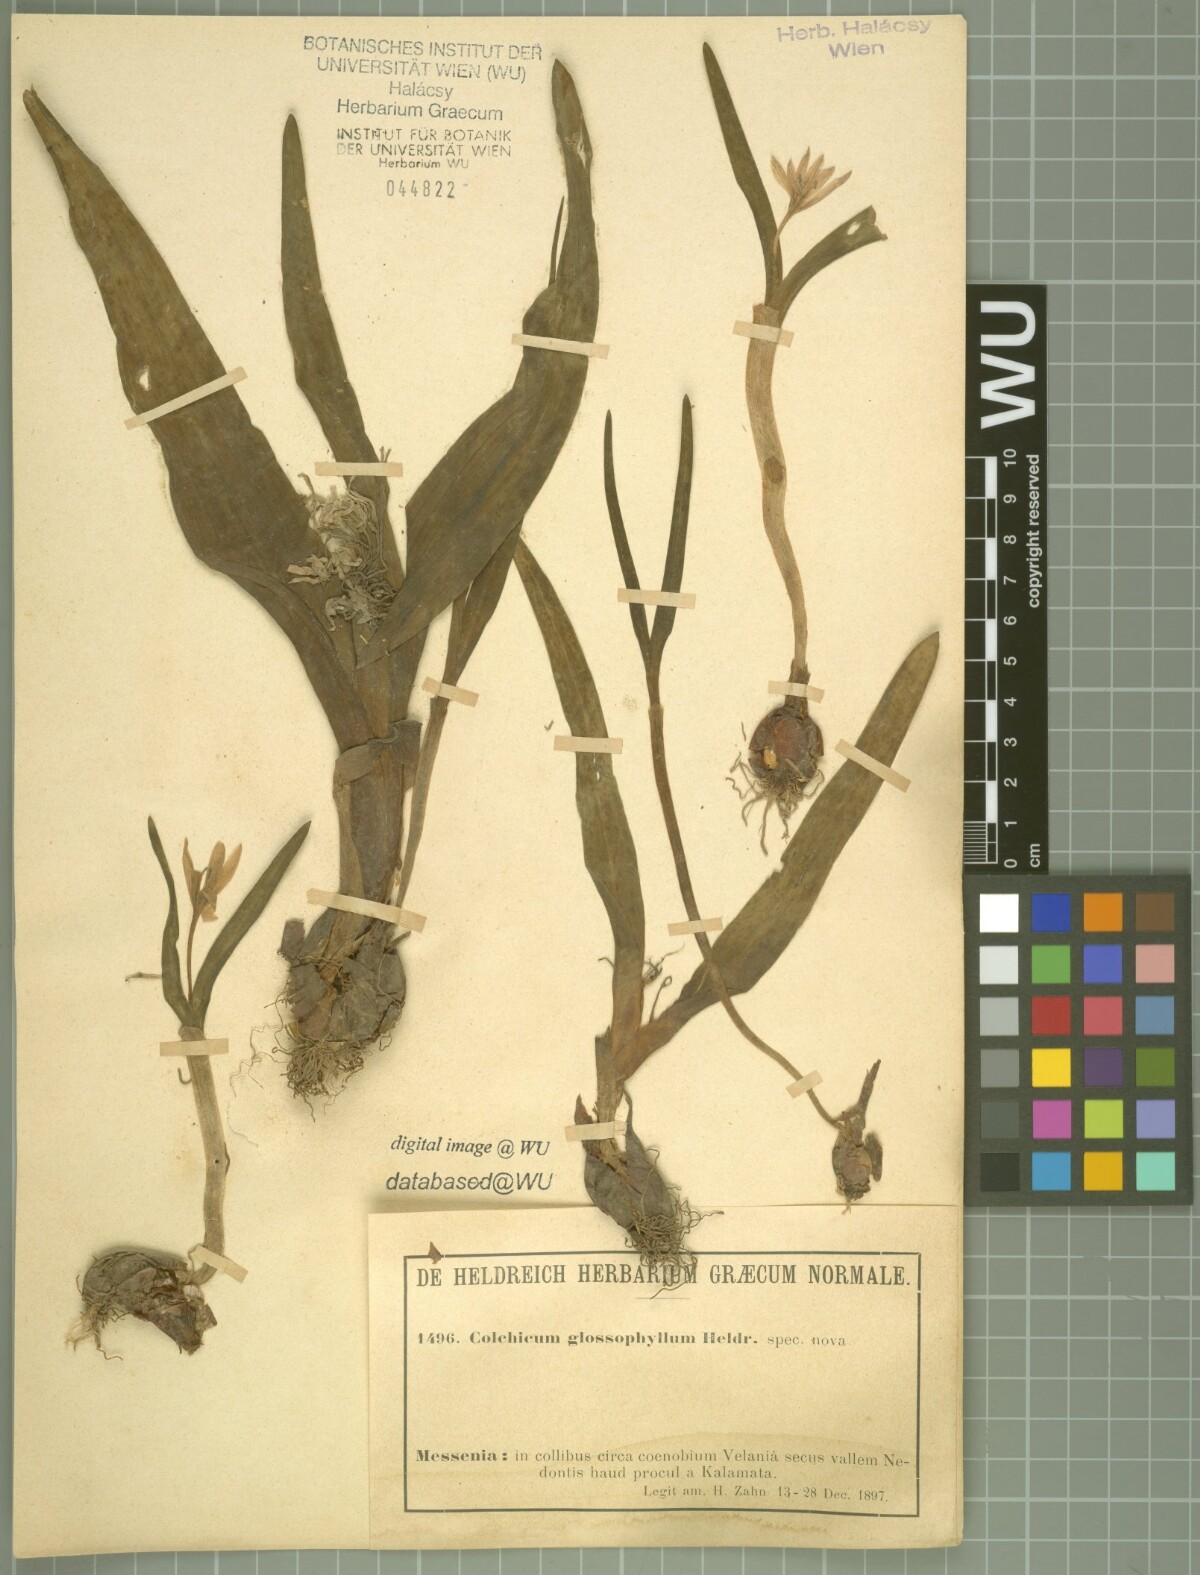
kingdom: Plantae
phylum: Tracheophyta
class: Liliopsida
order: Liliales
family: Colchicaceae
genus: Colchicum
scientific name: Colchicum cupanii
